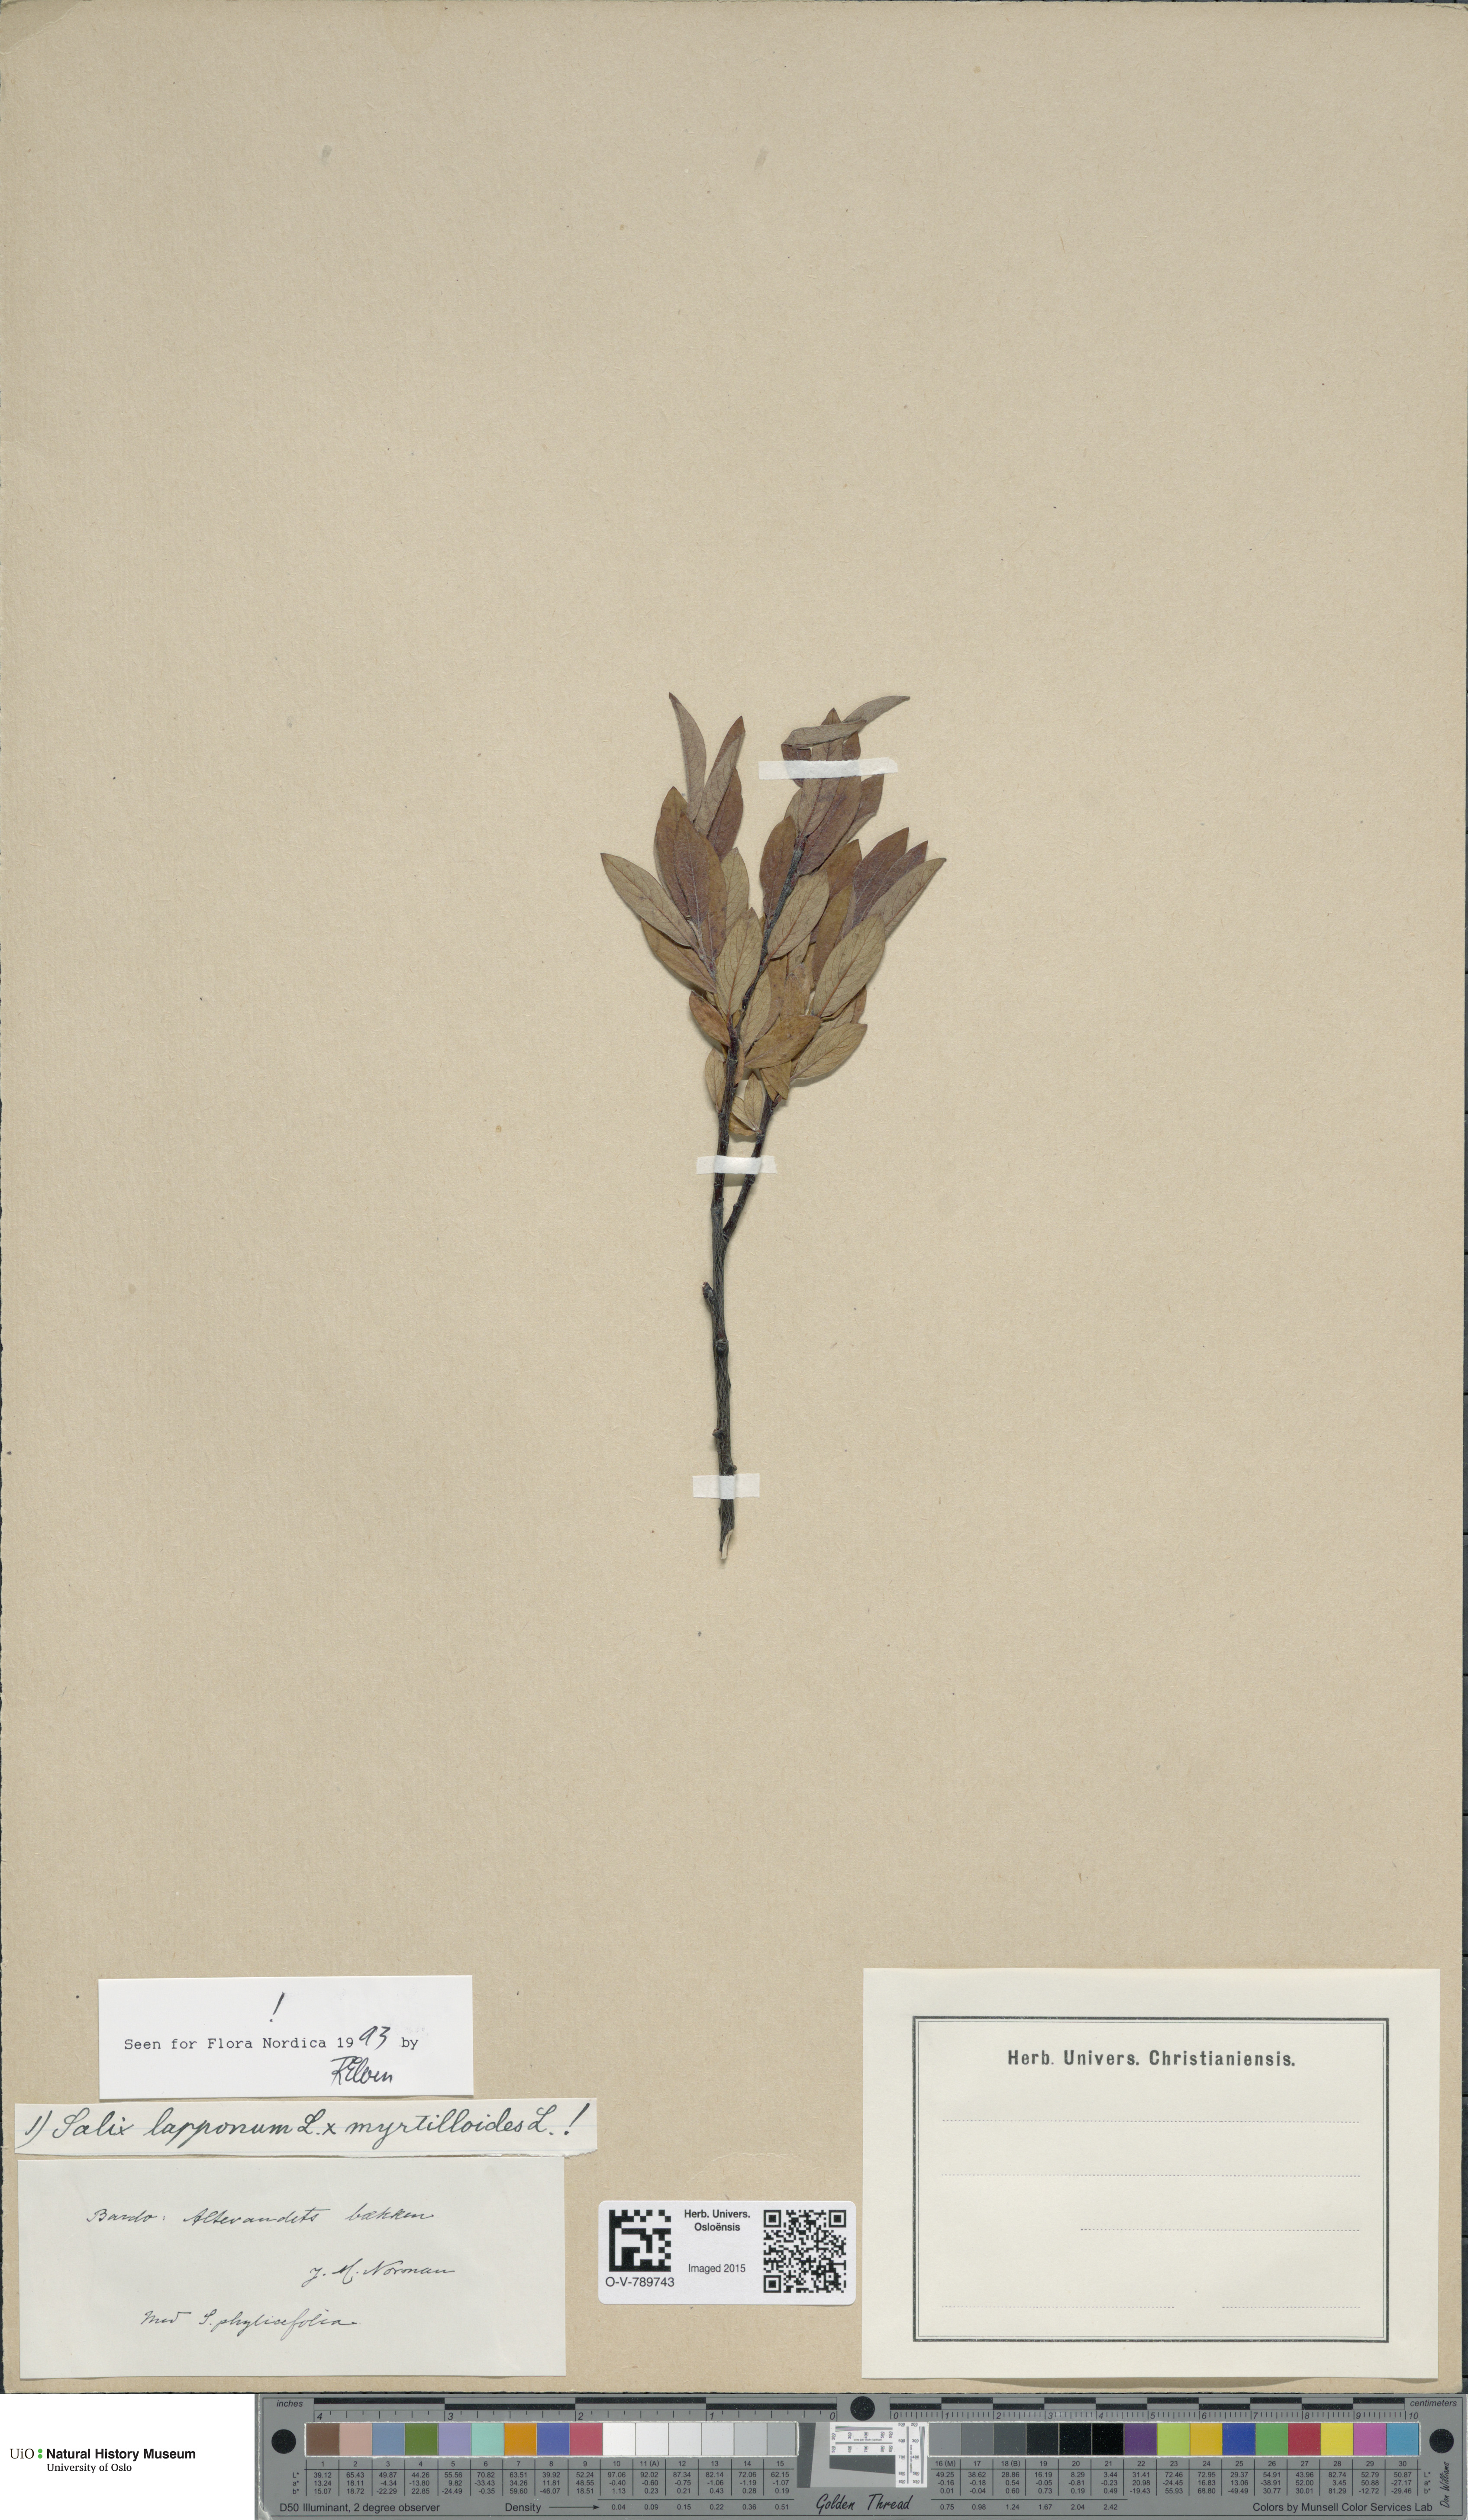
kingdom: Plantae
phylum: Tracheophyta
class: Magnoliopsida
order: Malpighiales
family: Salicaceae
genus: Salix
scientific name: Salix
